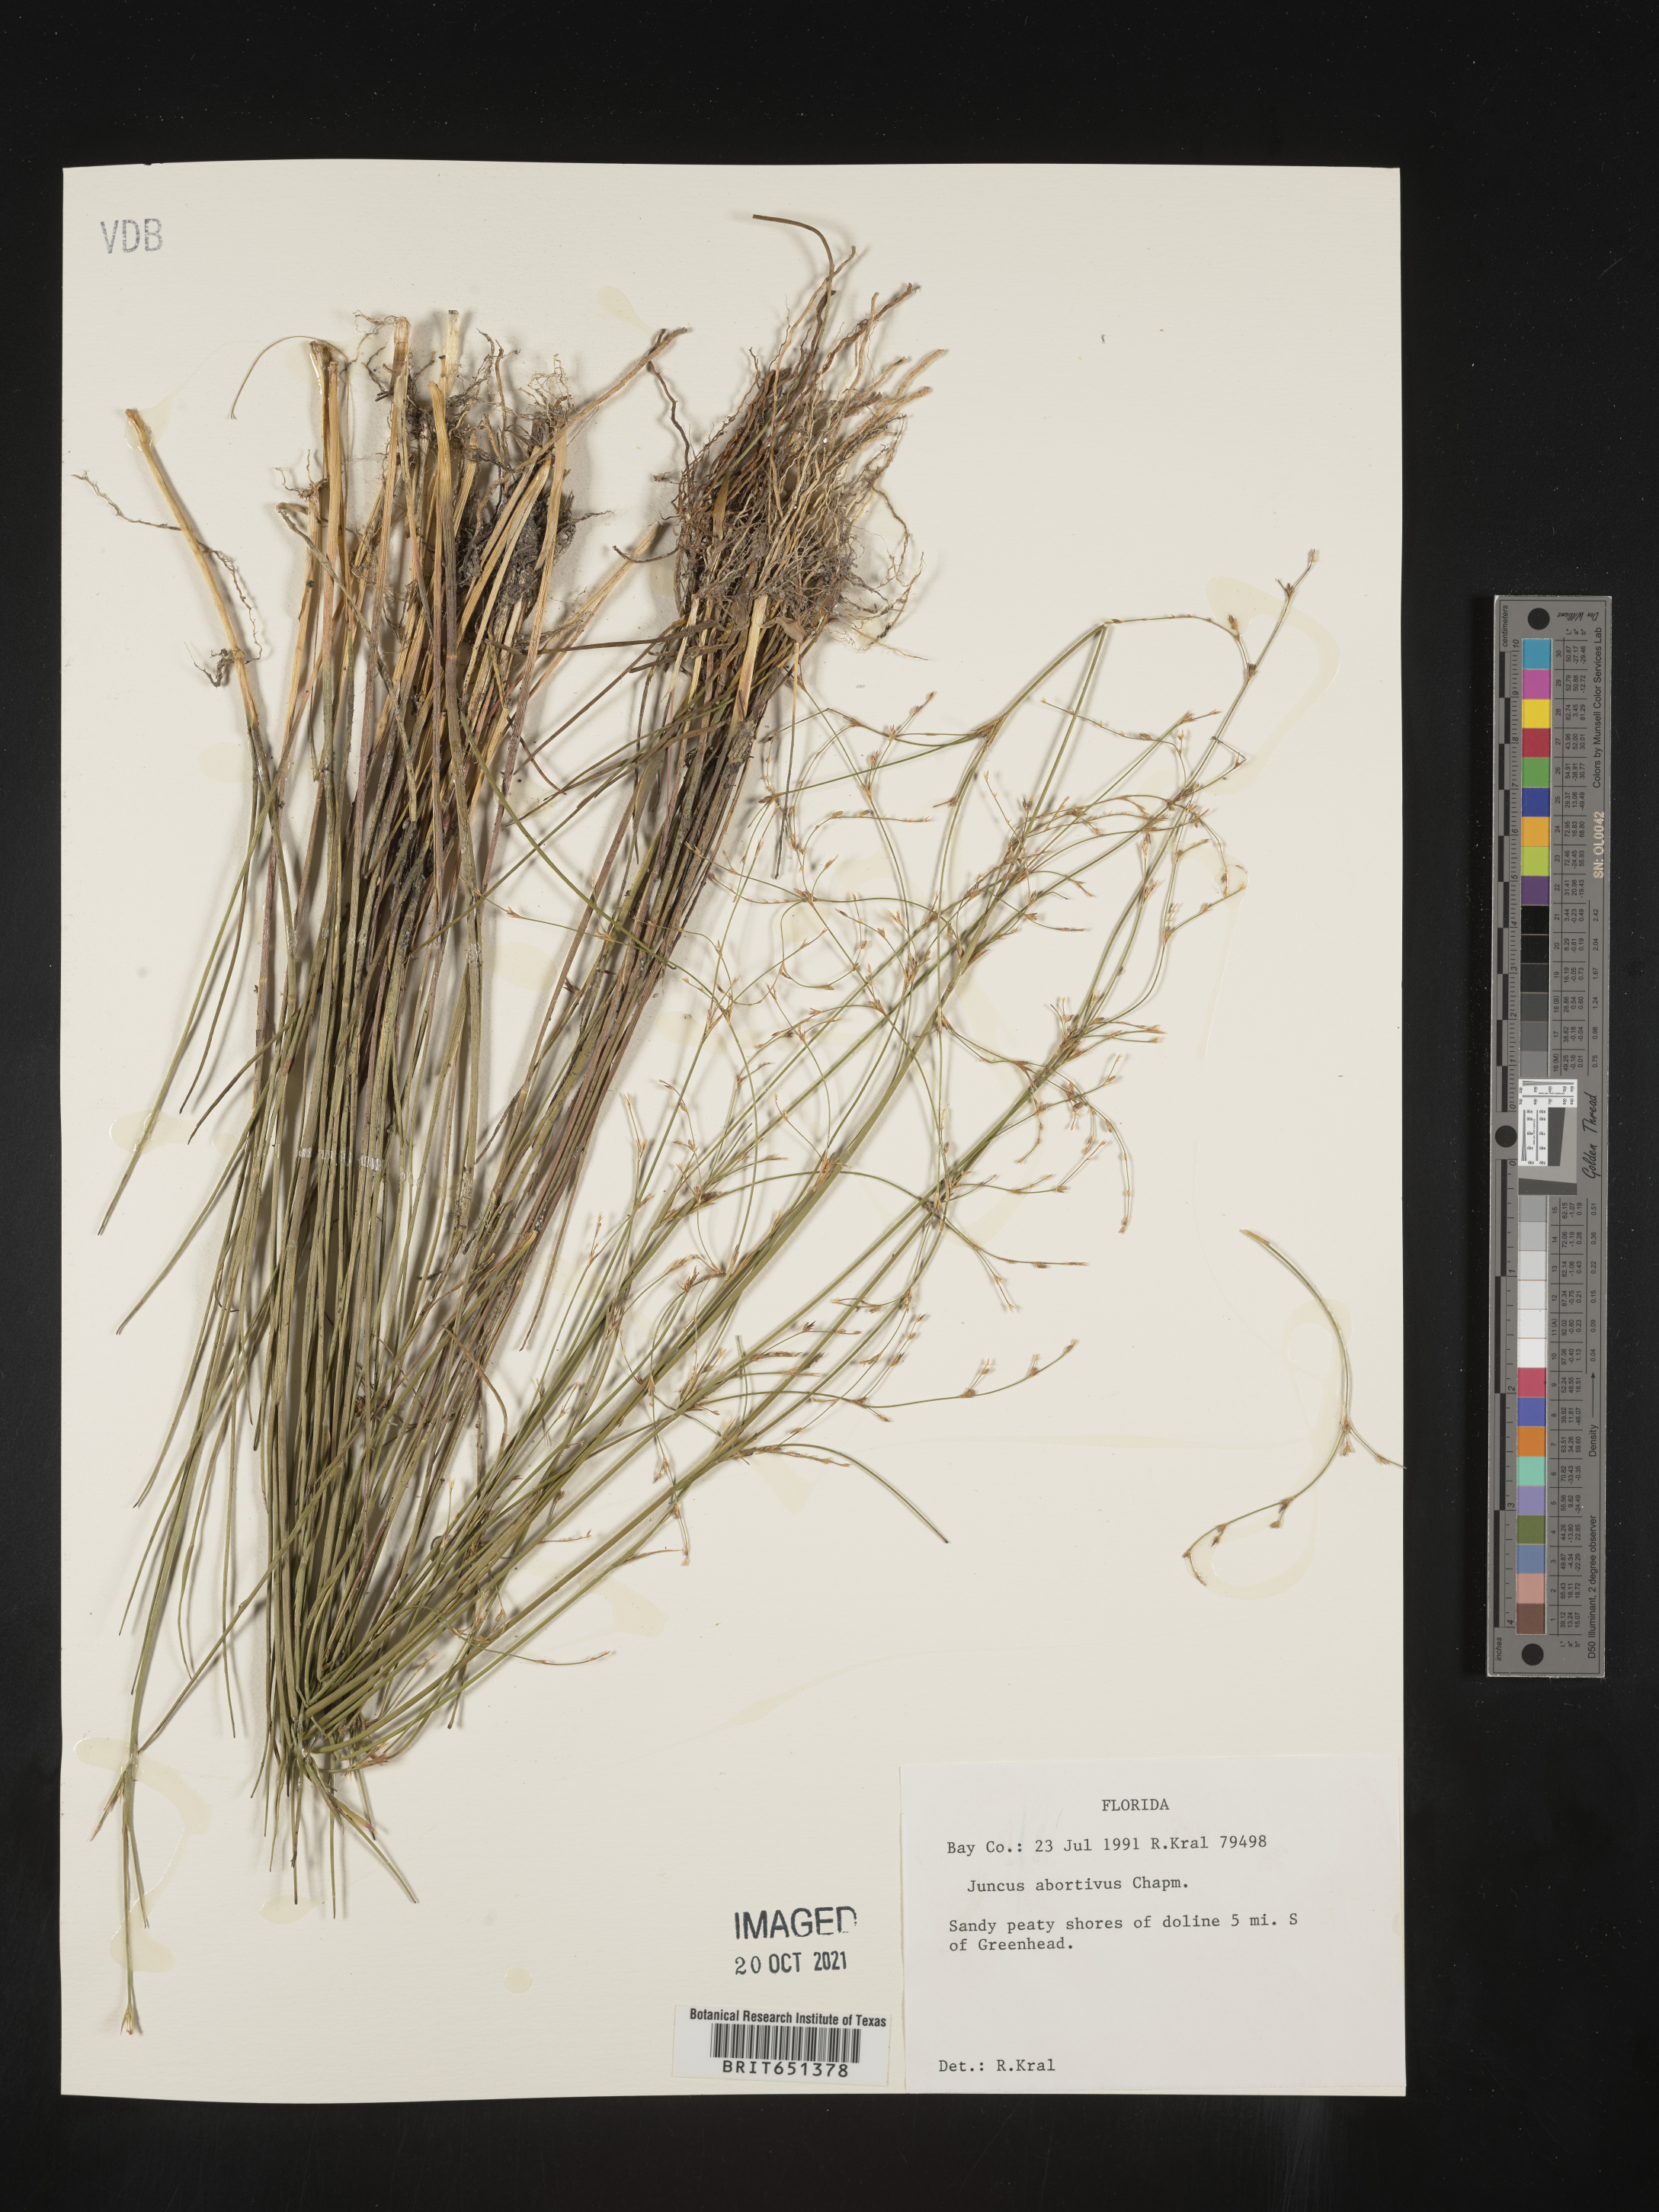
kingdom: Plantae
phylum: Tracheophyta
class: Liliopsida
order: Poales
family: Juncaceae
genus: Juncus
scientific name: Juncus abortivus
